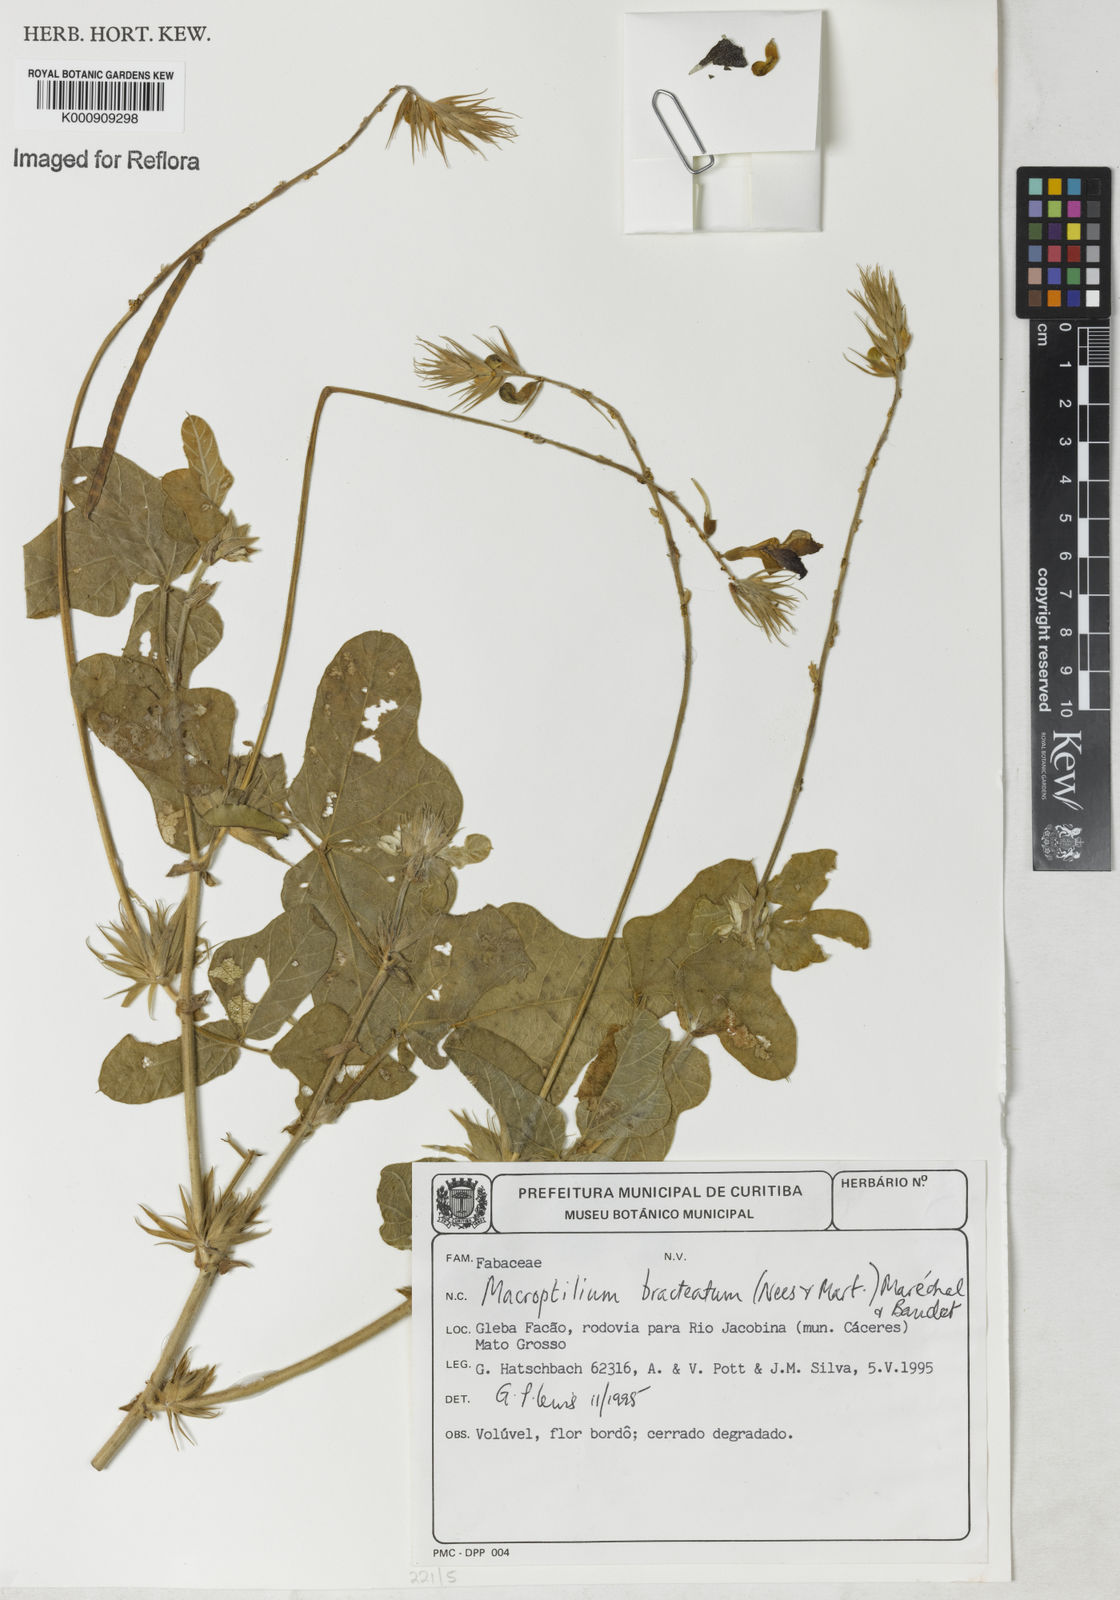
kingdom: Plantae
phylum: Tracheophyta
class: Magnoliopsida
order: Fabales
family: Fabaceae
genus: Macroptilium
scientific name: Macroptilium
